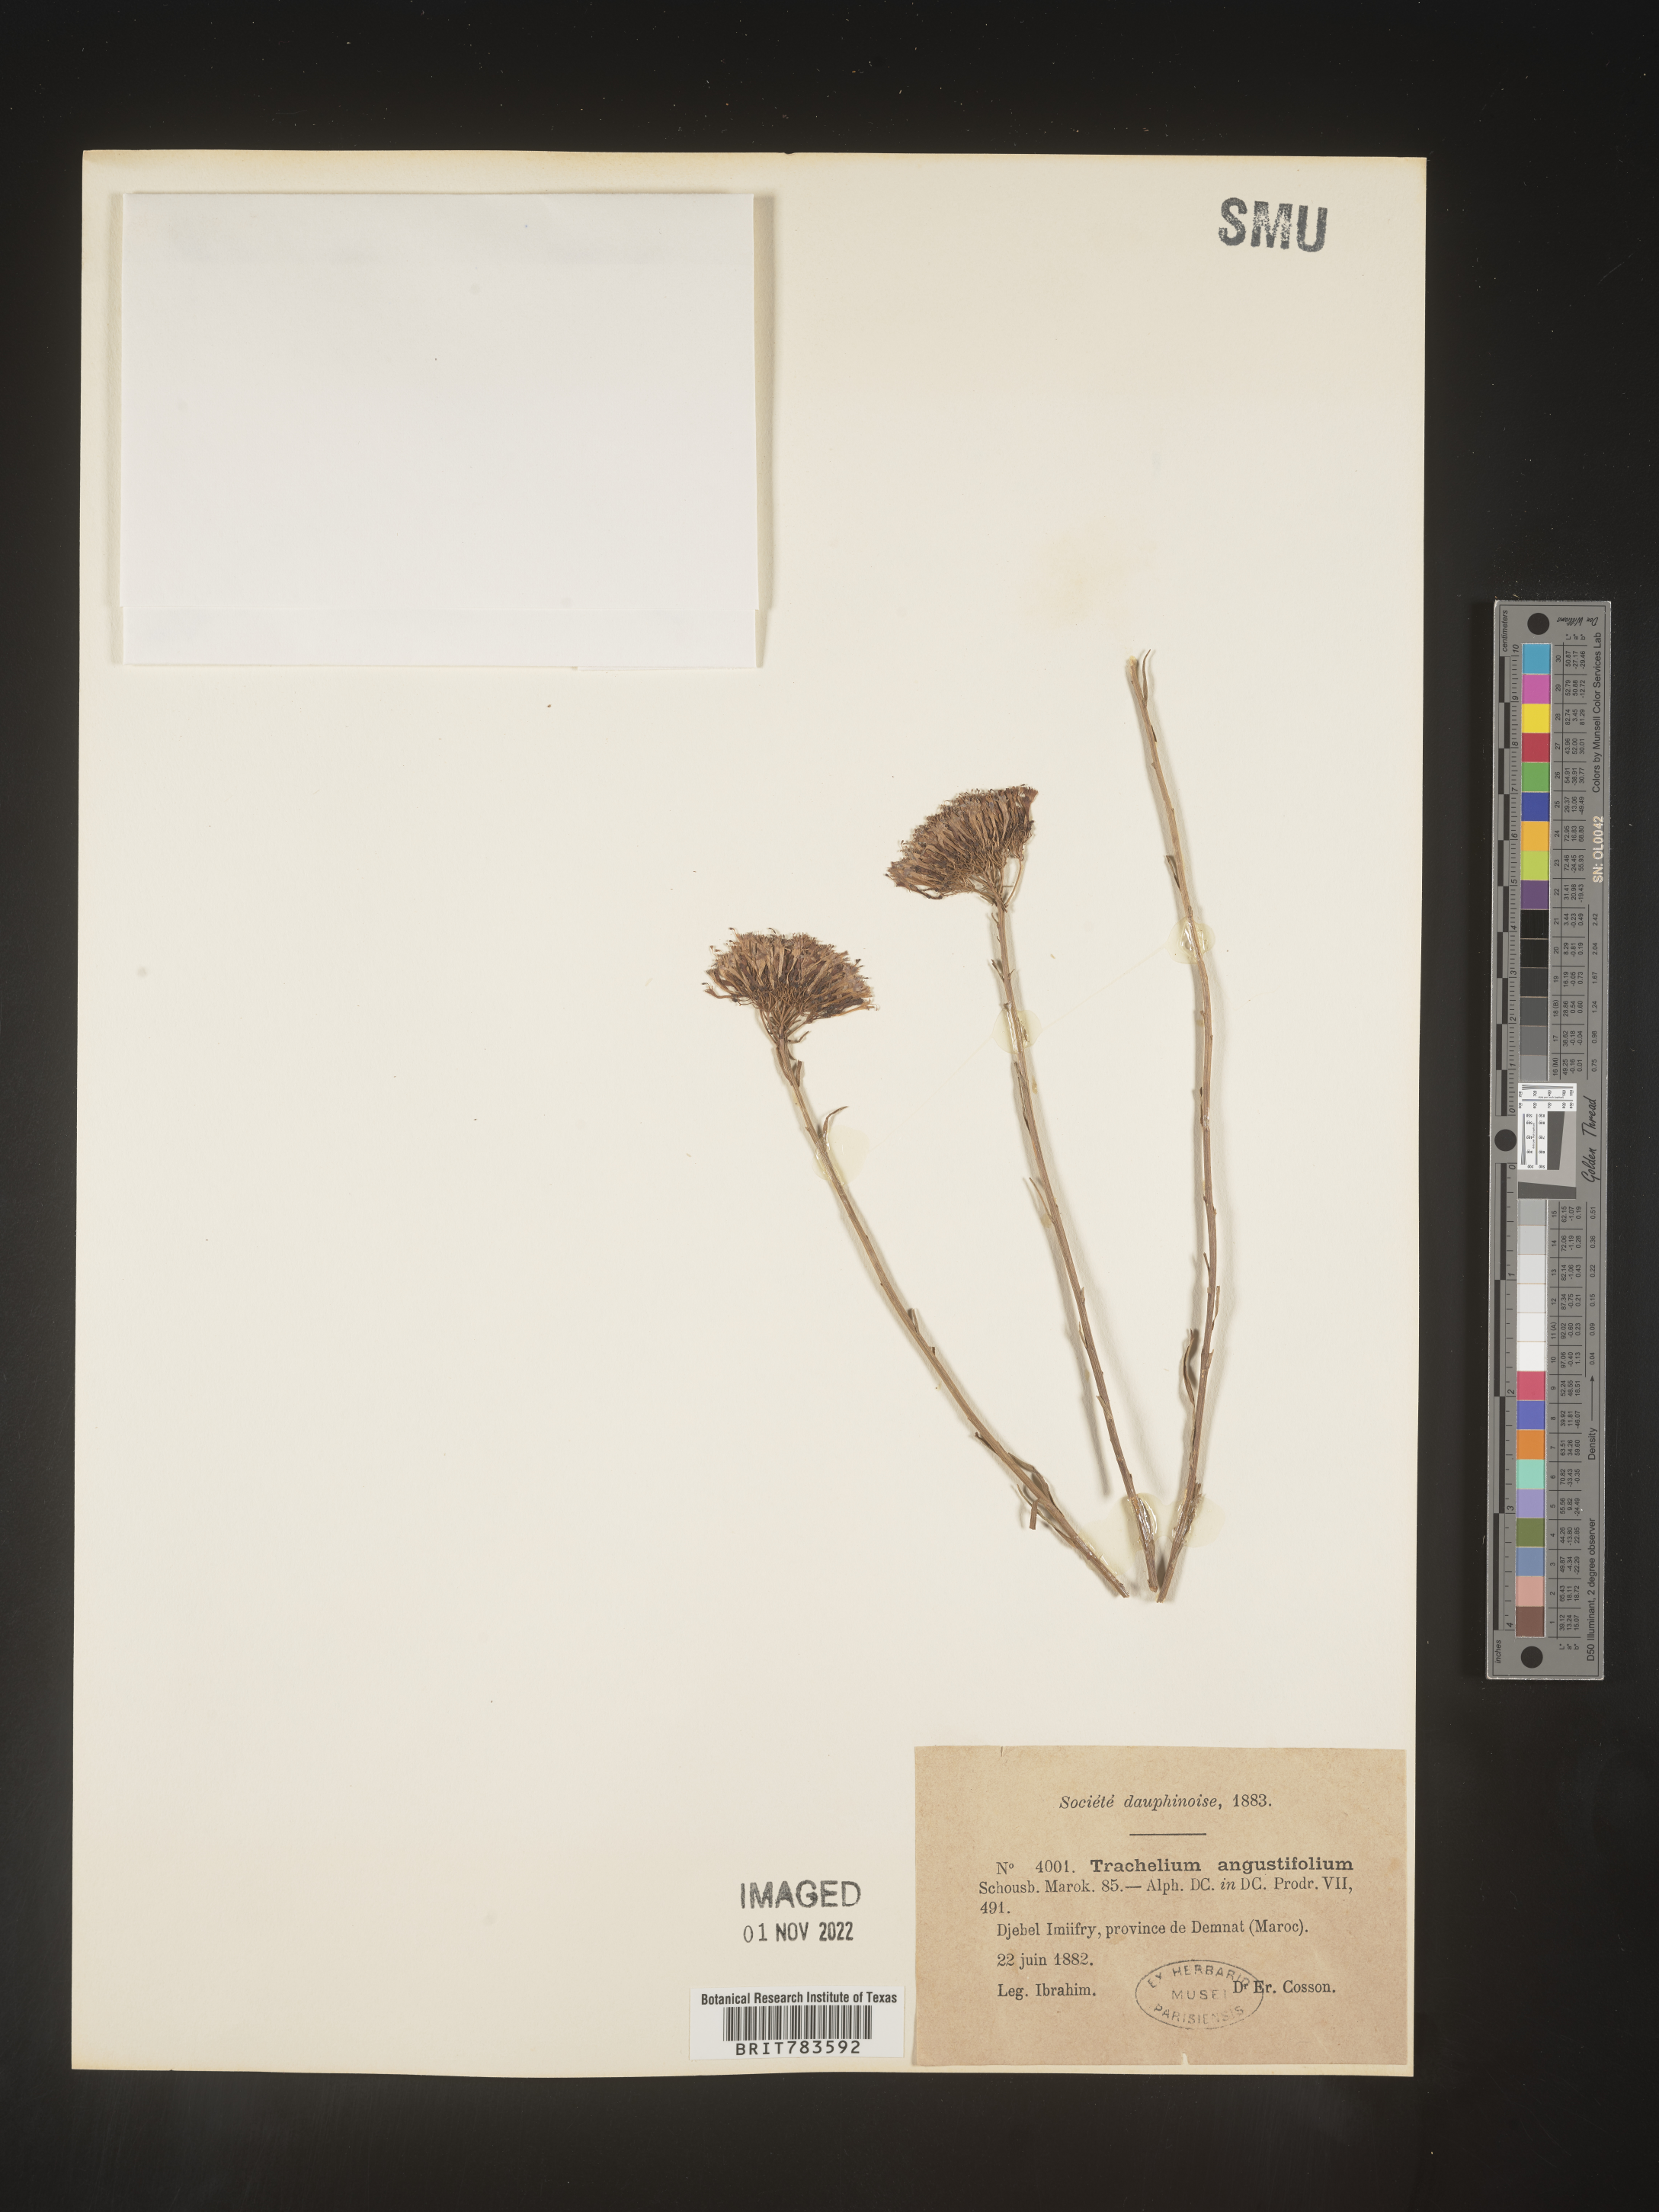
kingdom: Plantae
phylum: Tracheophyta
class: Magnoliopsida
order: Asterales
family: Campanulaceae
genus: Trachelium
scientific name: Trachelium
